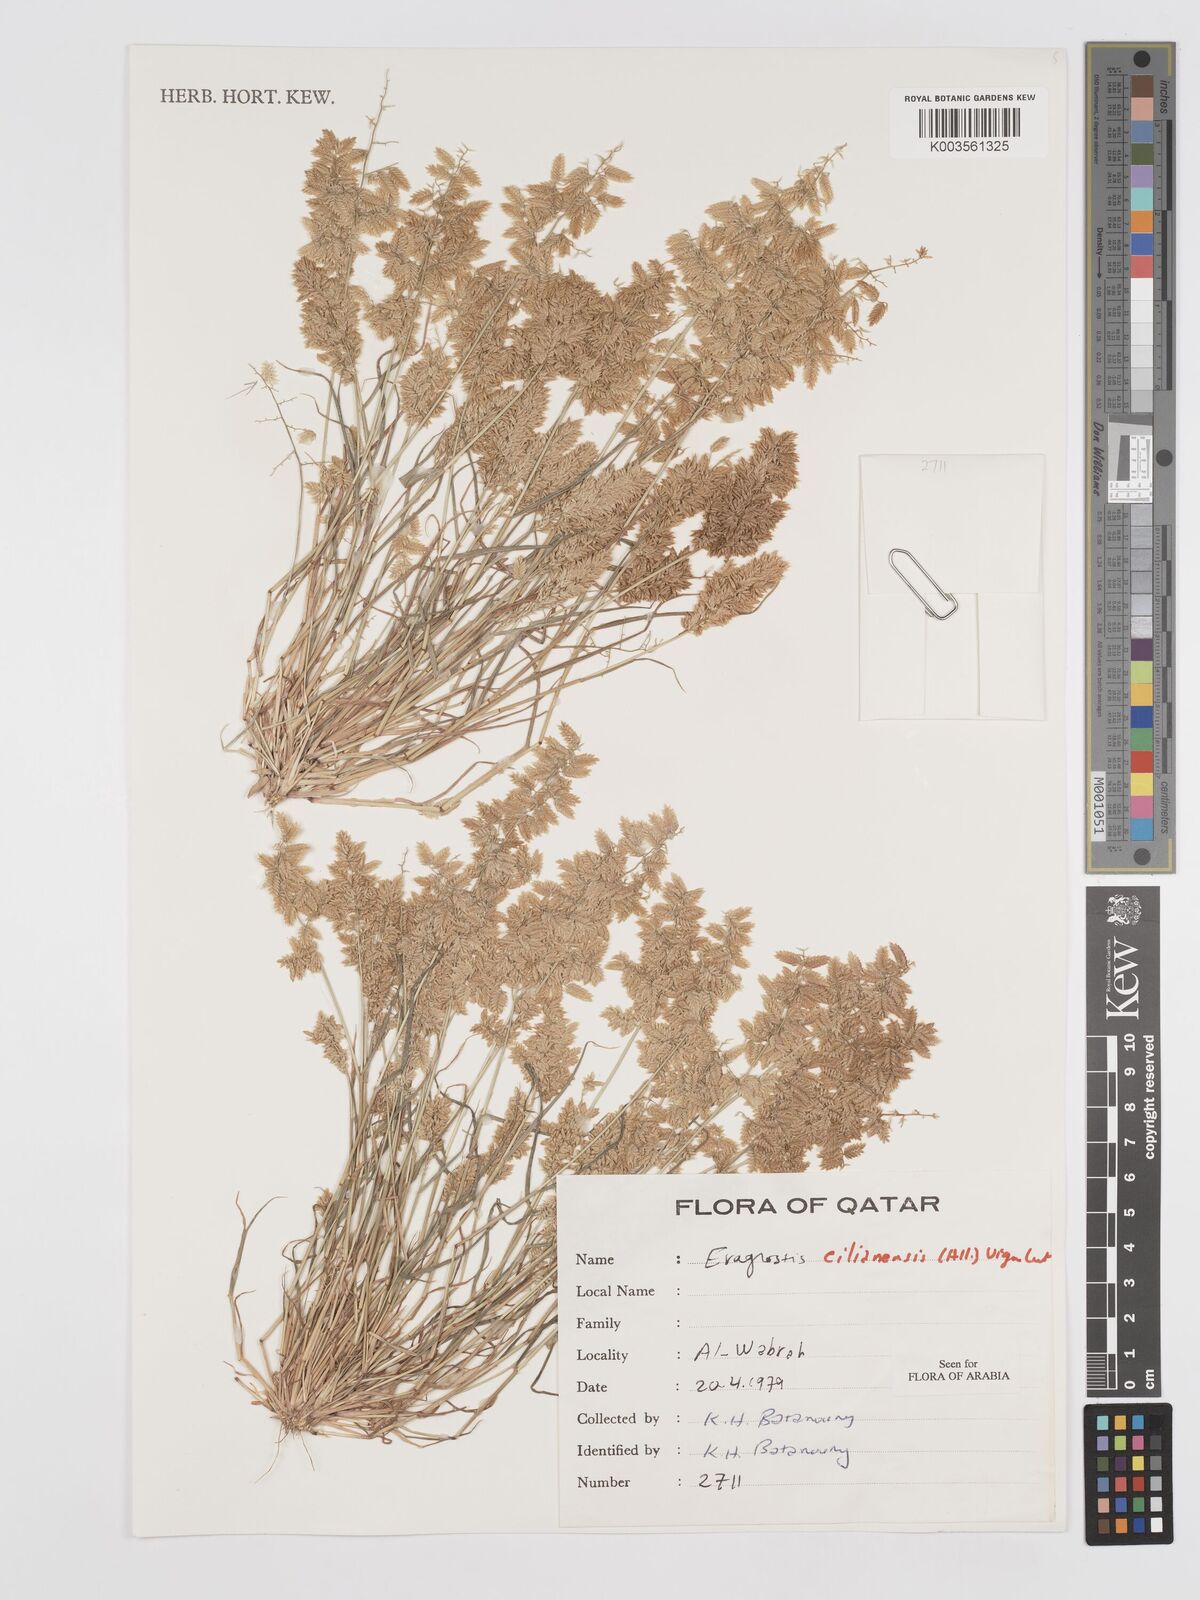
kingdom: Plantae
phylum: Tracheophyta
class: Liliopsida
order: Poales
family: Poaceae
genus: Eragrostis
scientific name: Eragrostis cilianensis
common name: Stinkgrass
